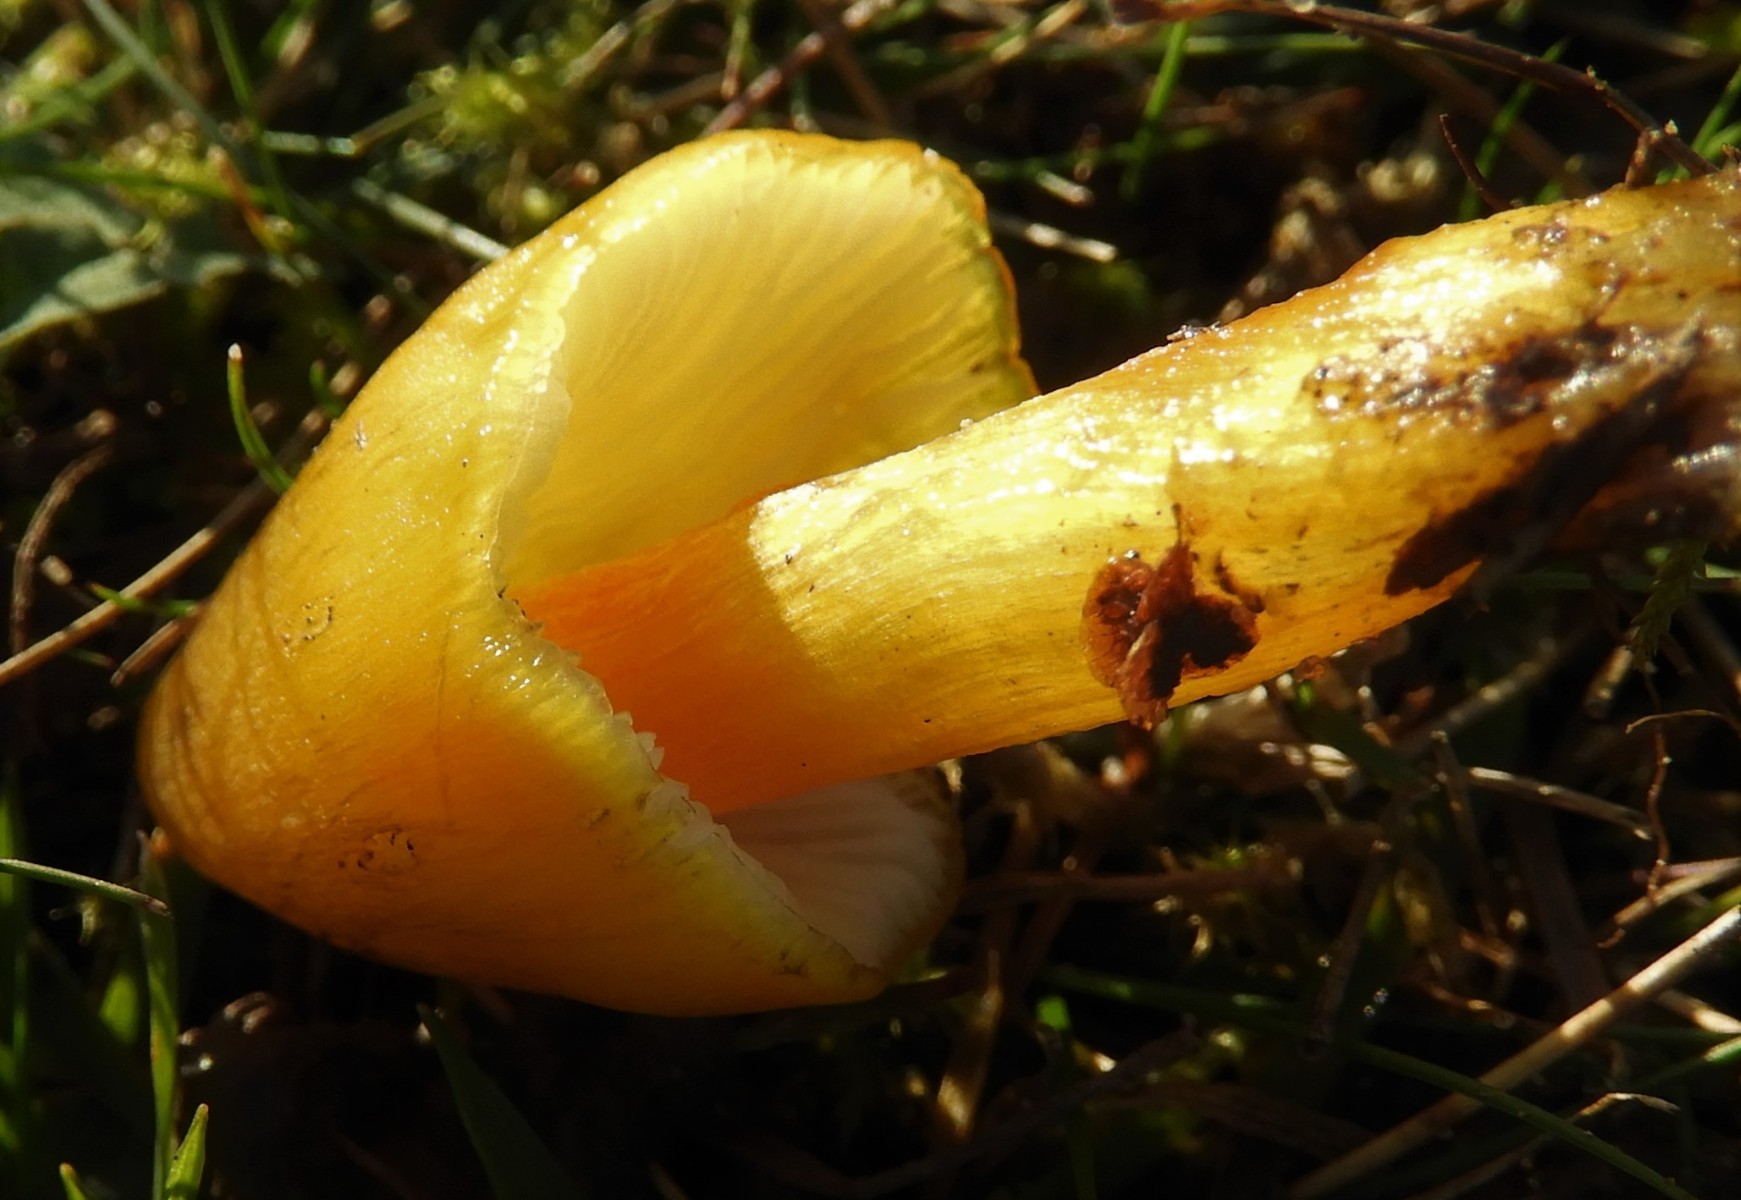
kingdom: Fungi
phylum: Basidiomycota
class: Agaricomycetes
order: Agaricales
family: Hygrophoraceae
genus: Hygrocybe
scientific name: Hygrocybe
